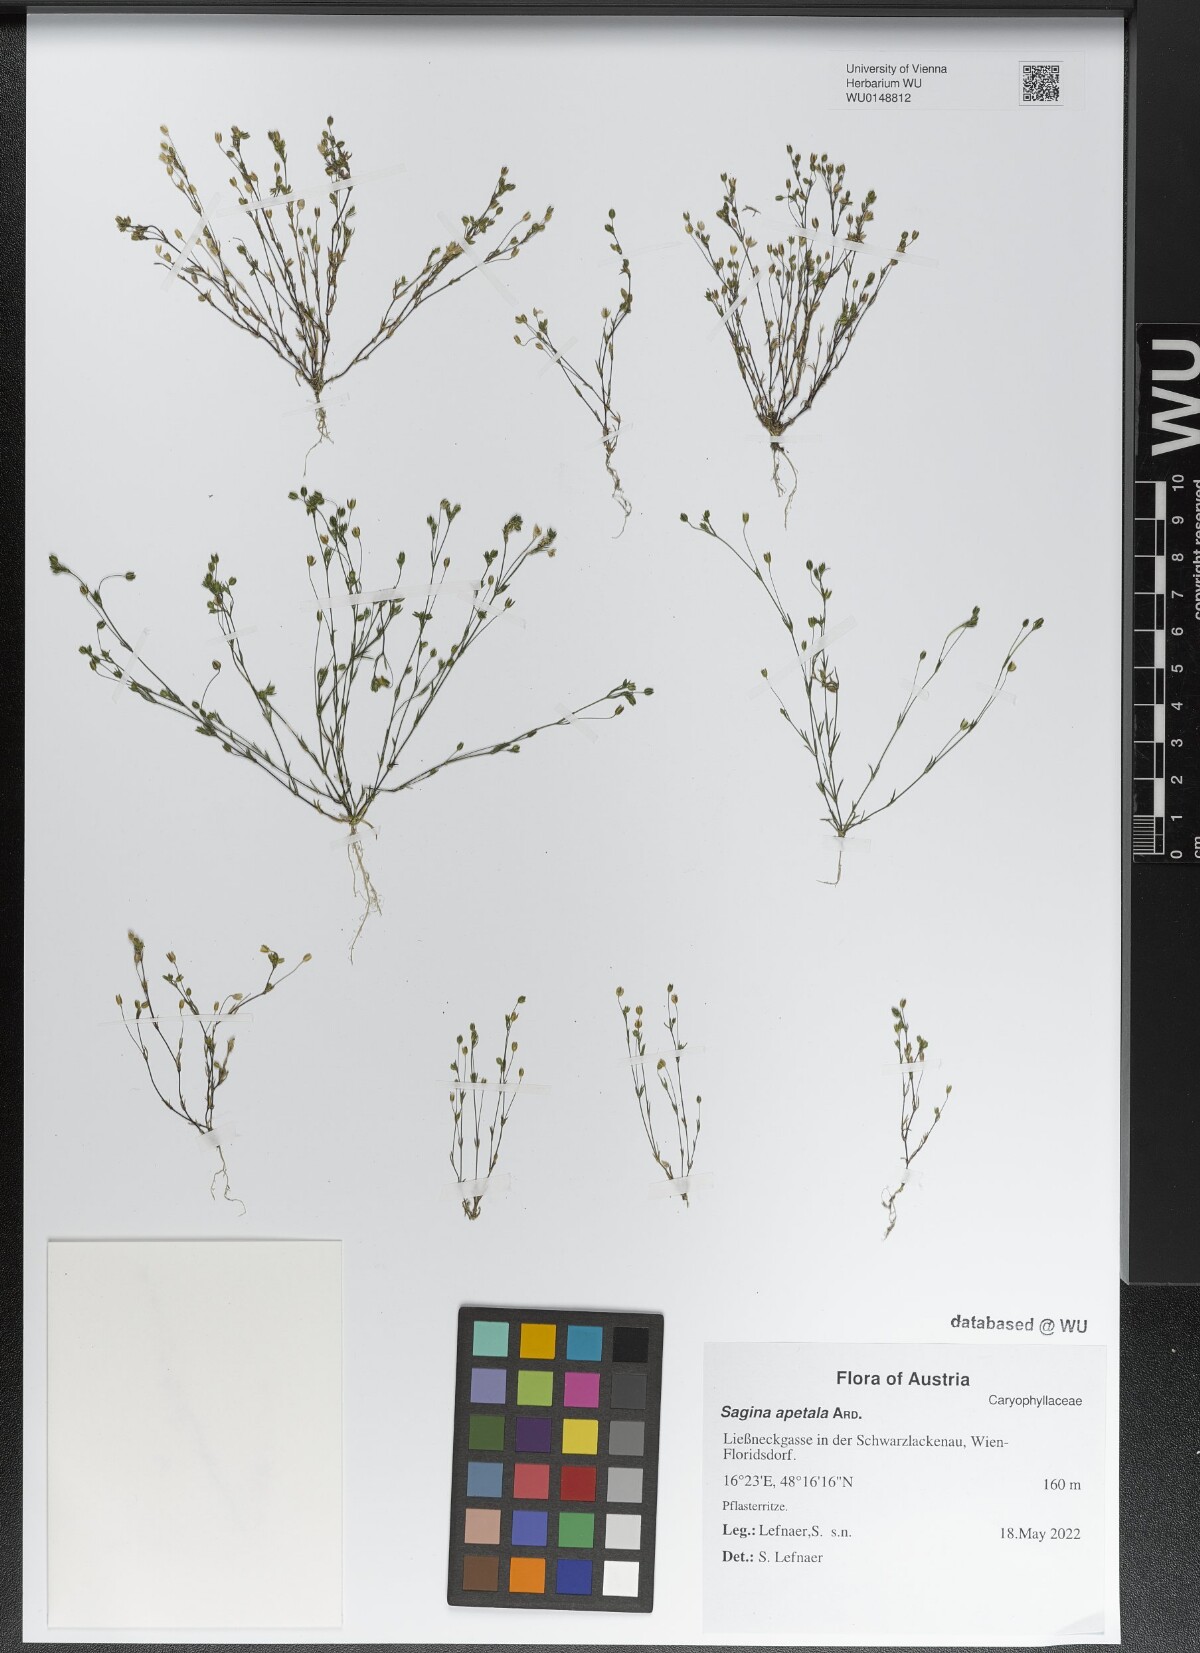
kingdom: Plantae
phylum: Tracheophyta
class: Magnoliopsida
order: Caryophyllales
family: Caryophyllaceae
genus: Sagina
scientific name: Sagina apetala
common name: Annual pearlwort
